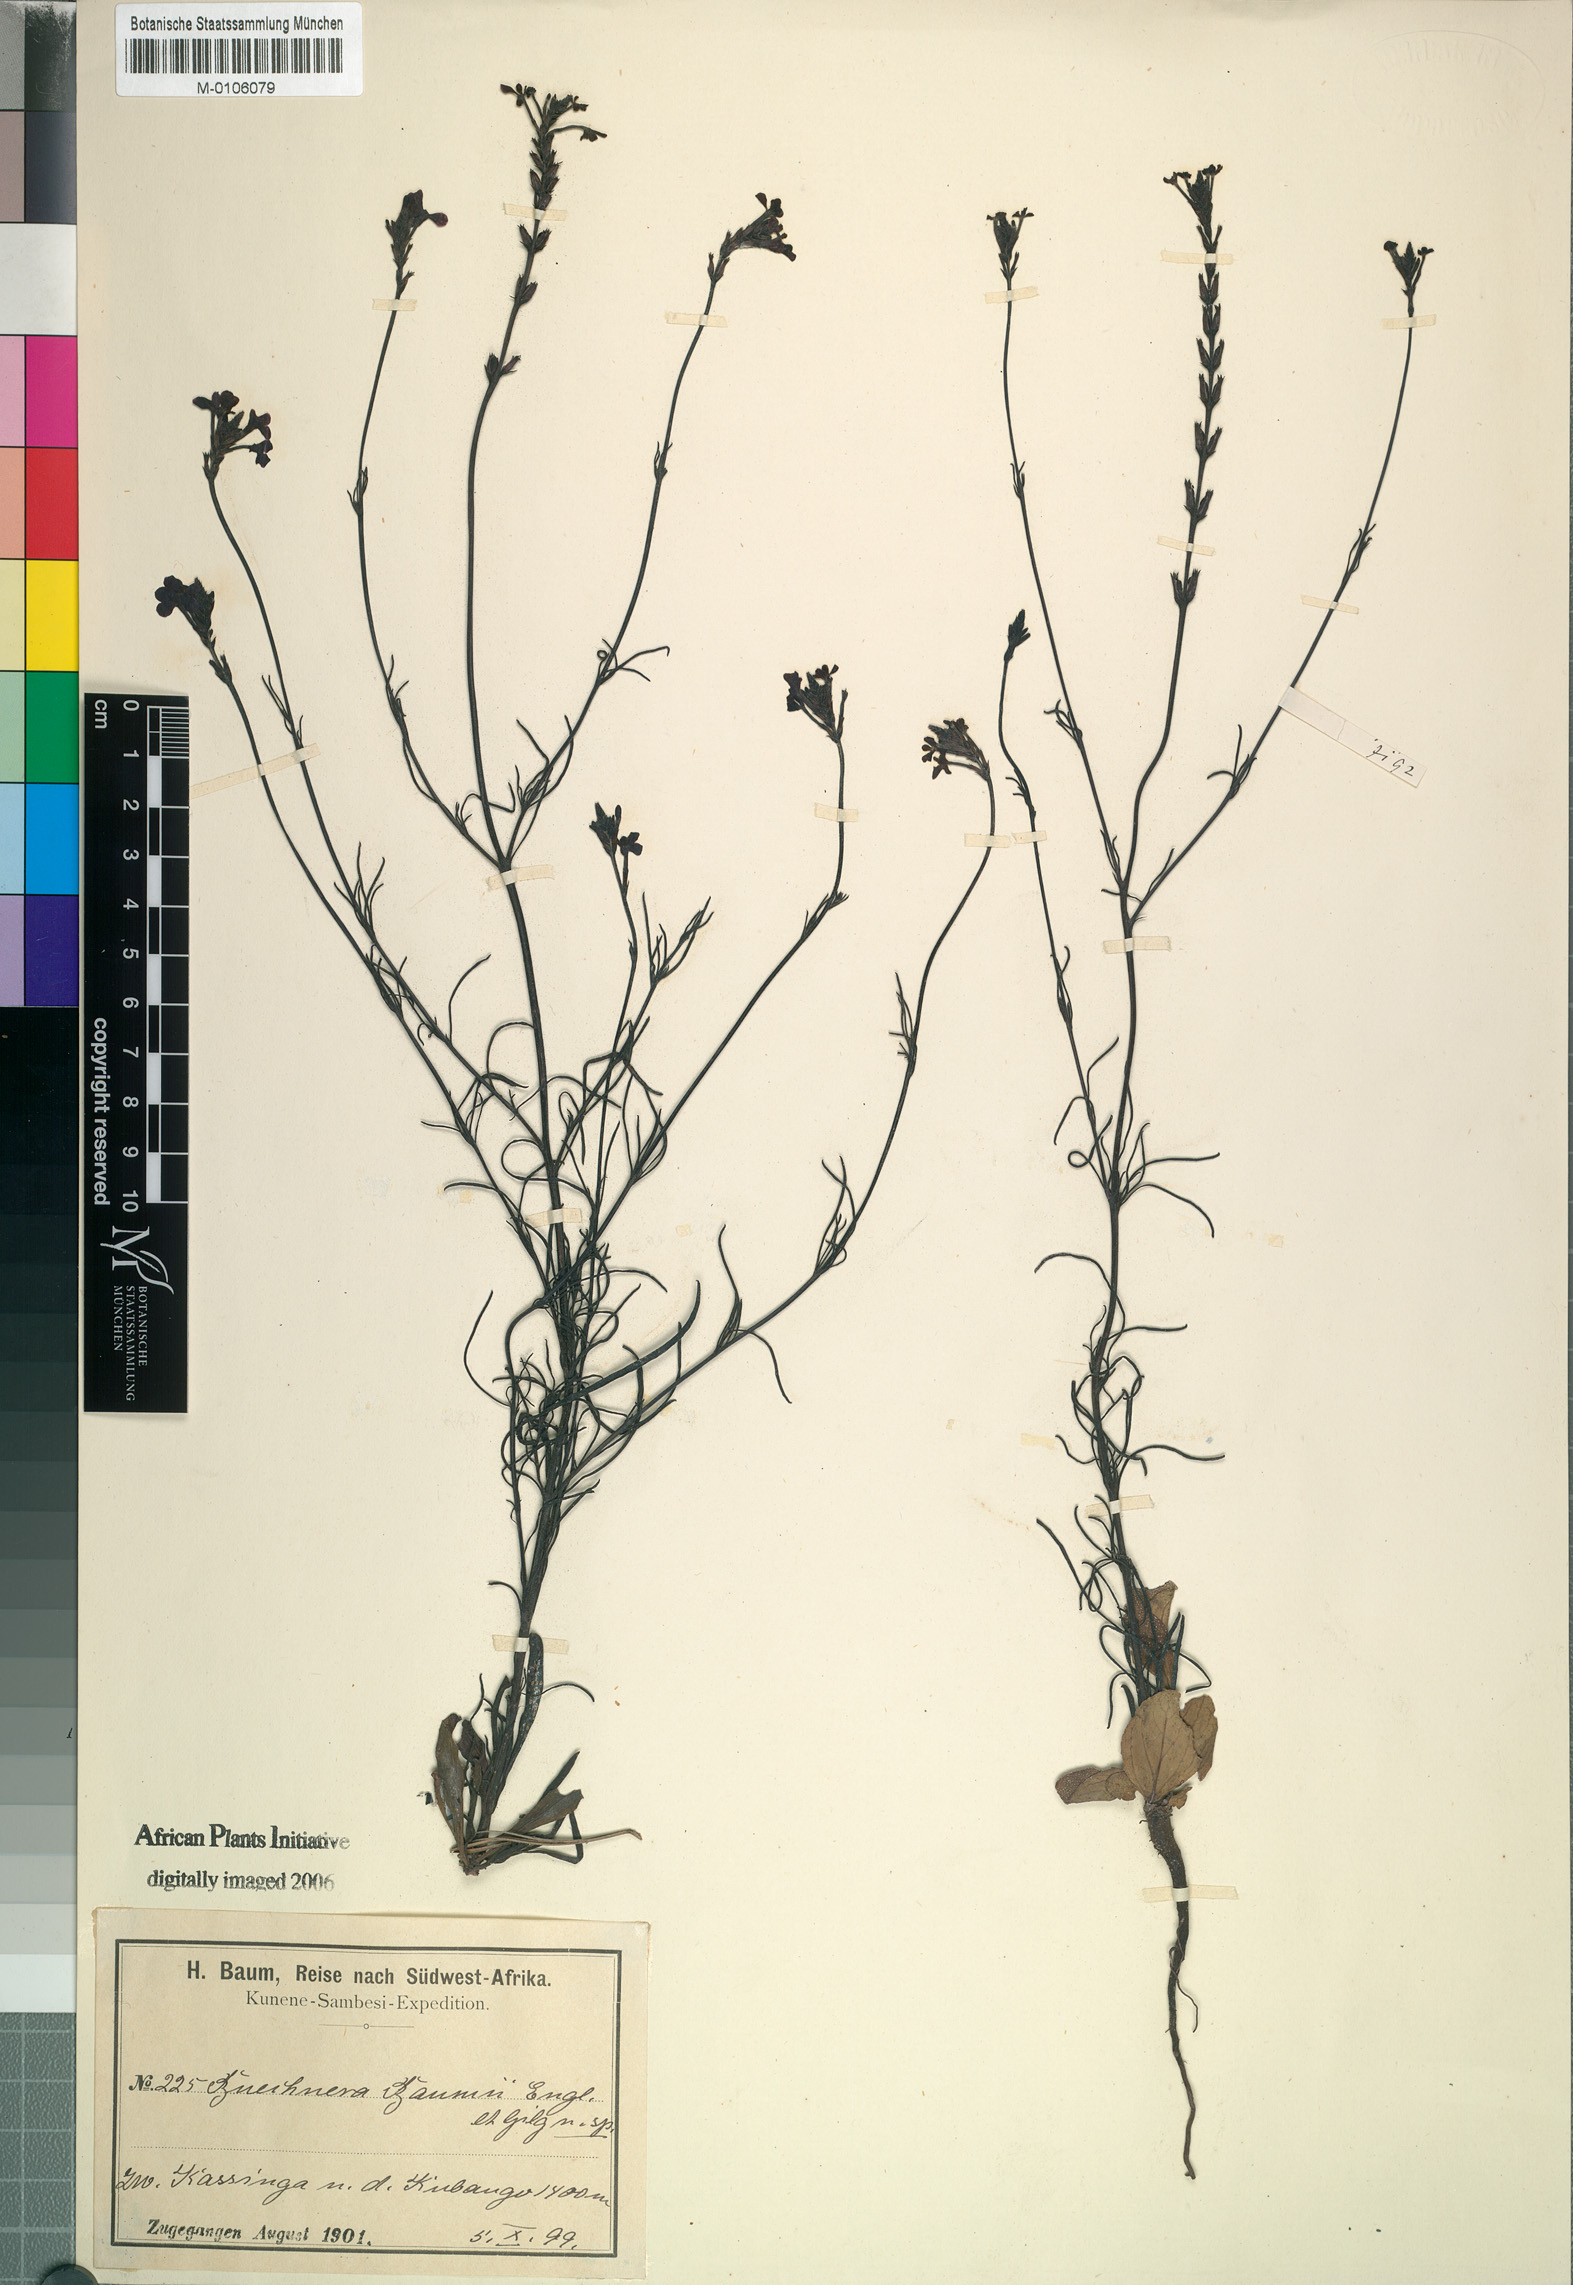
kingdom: Plantae
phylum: Tracheophyta
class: Magnoliopsida
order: Lamiales
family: Orobanchaceae
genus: Buchnera
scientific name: Buchnera baumii
